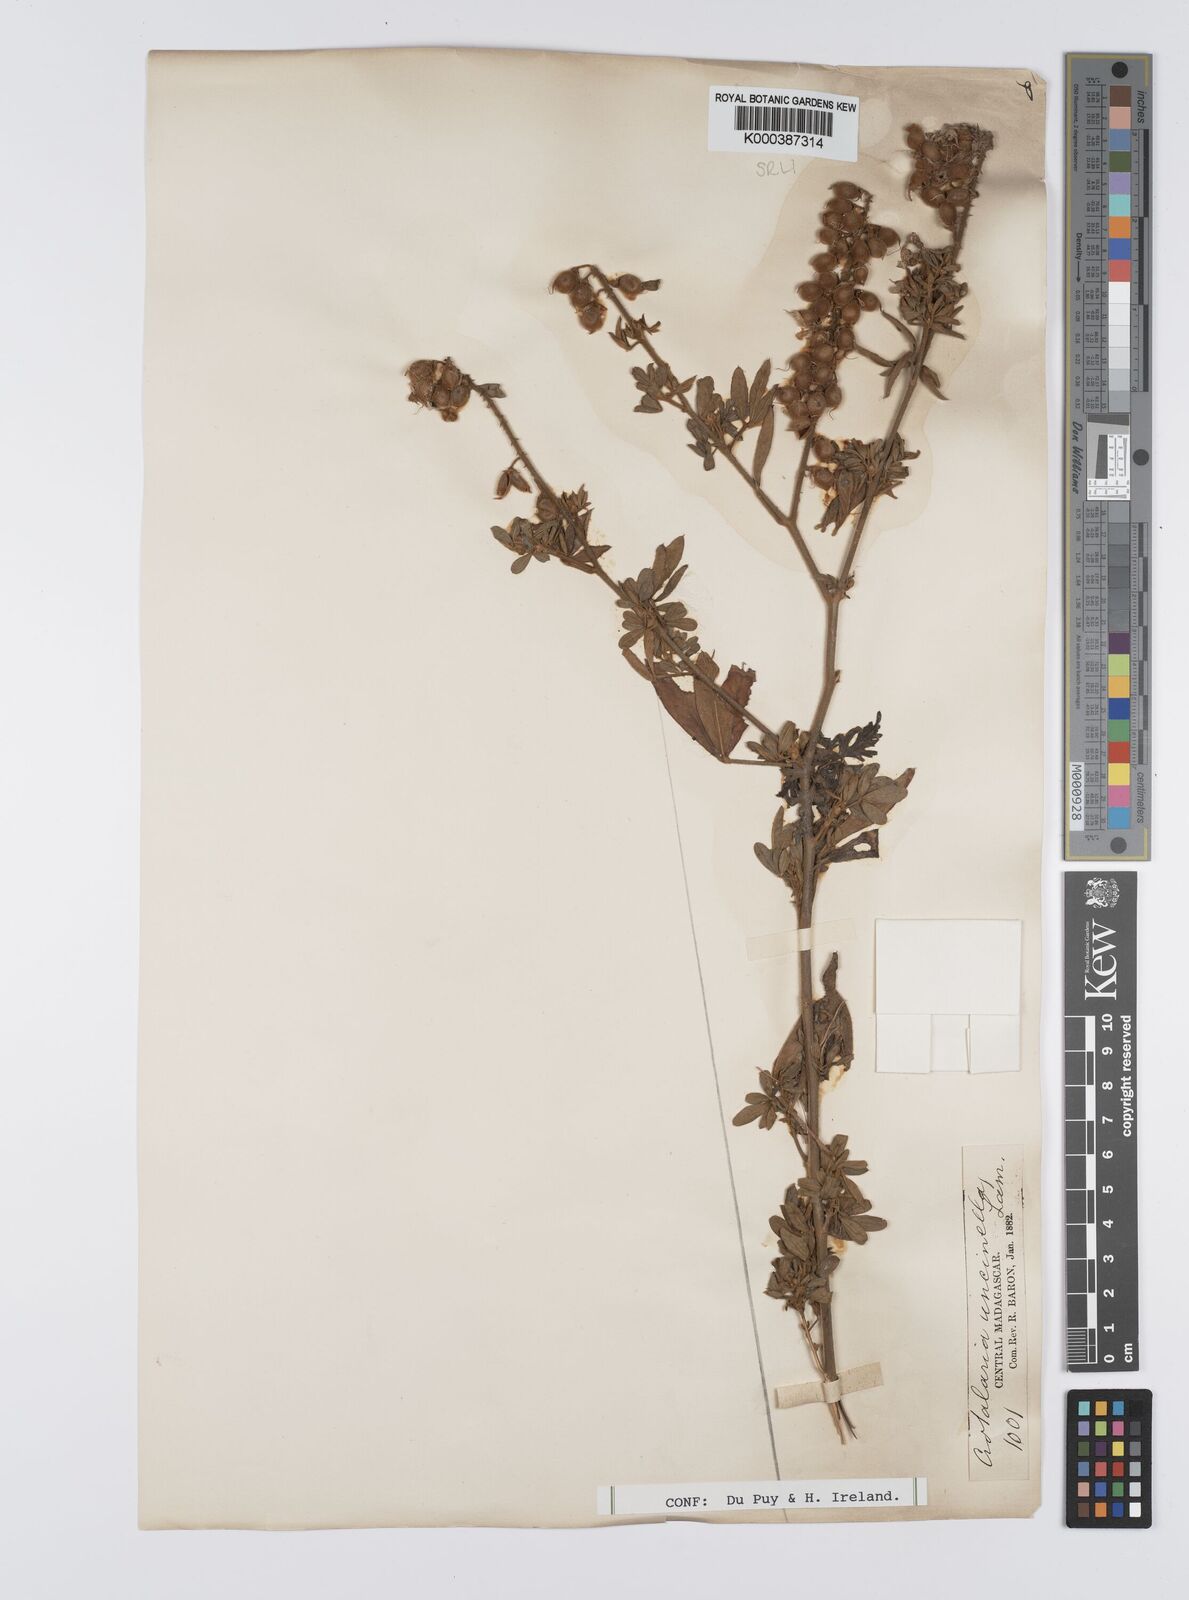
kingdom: Plantae
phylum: Tracheophyta
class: Magnoliopsida
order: Fabales
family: Fabaceae
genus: Crotalaria
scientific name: Crotalaria uncinella
